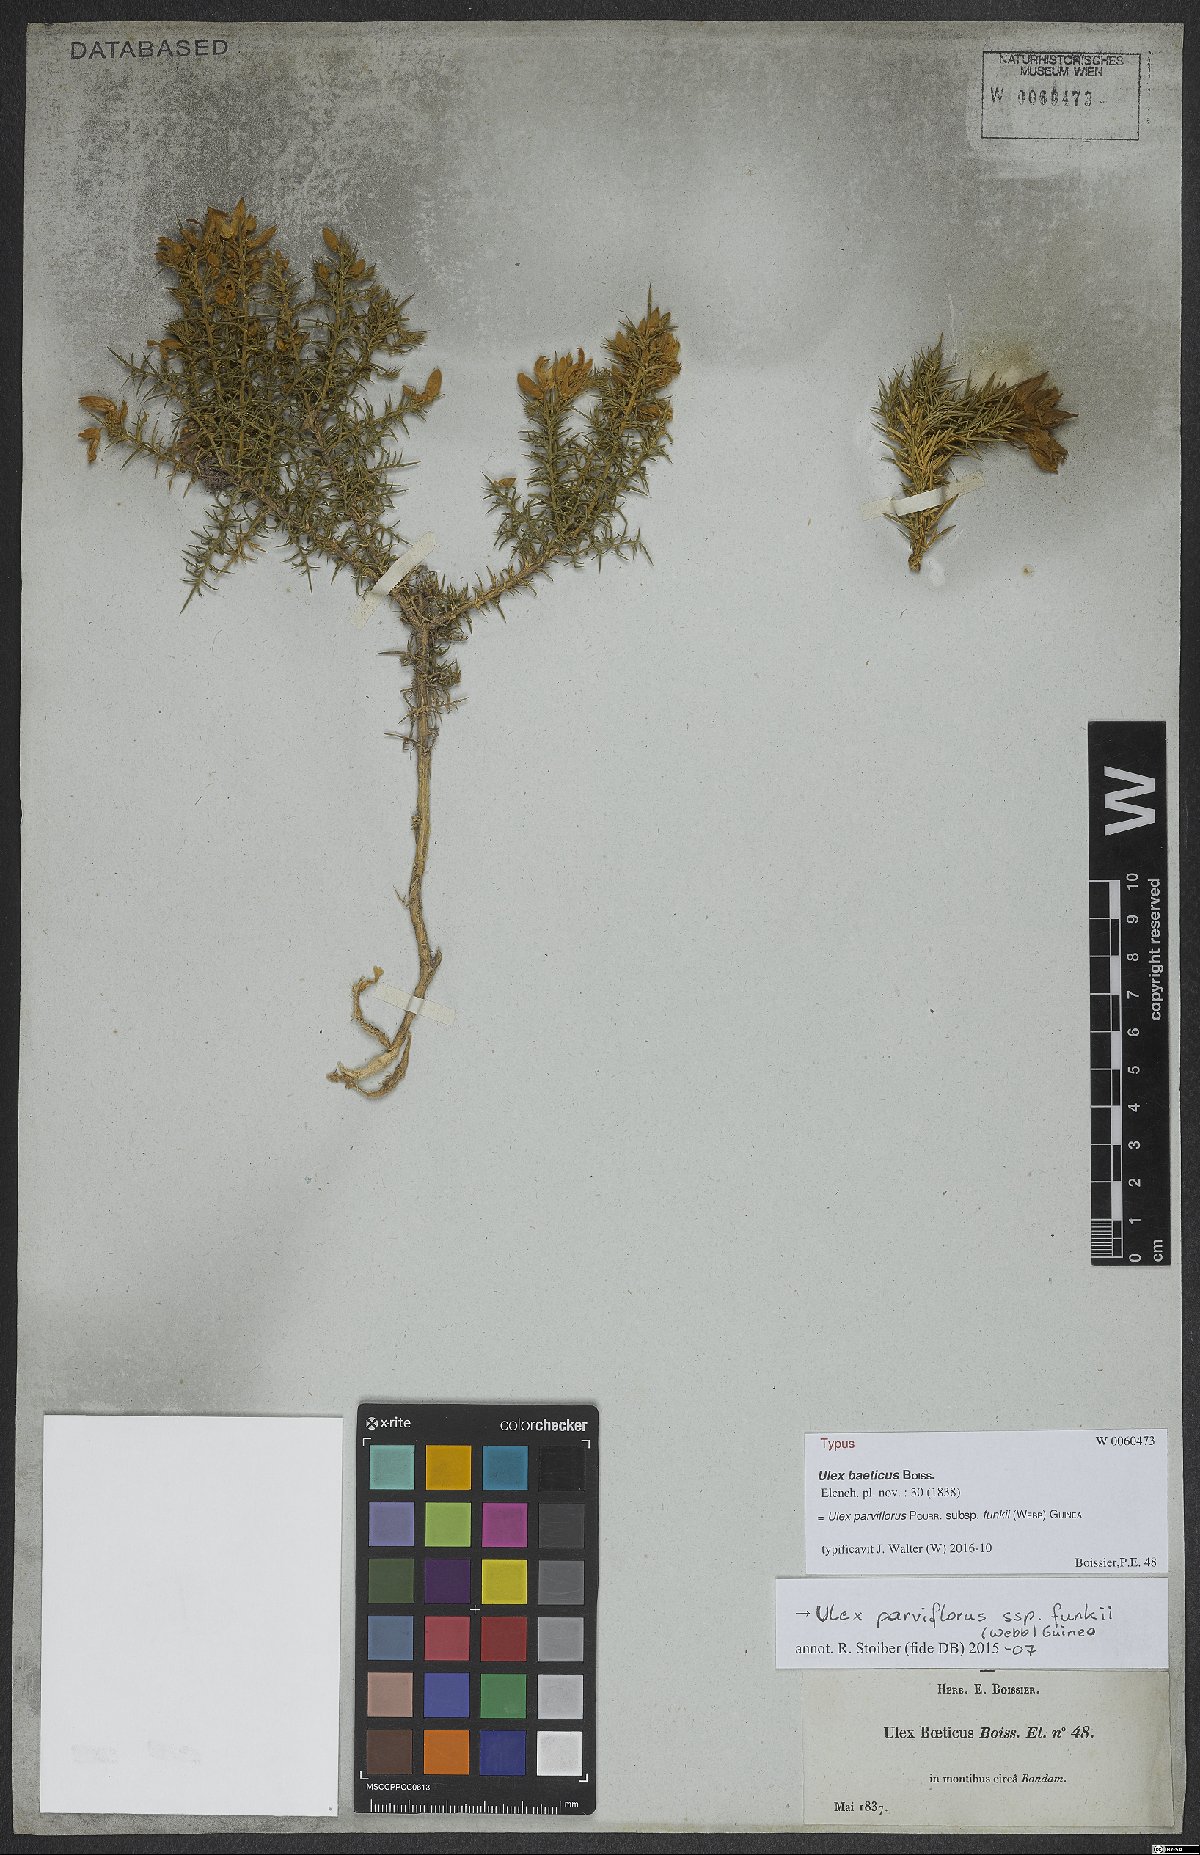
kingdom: Plantae
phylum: Tracheophyta
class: Magnoliopsida
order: Fabales
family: Fabaceae
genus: Ulex
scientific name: Ulex baeticus
